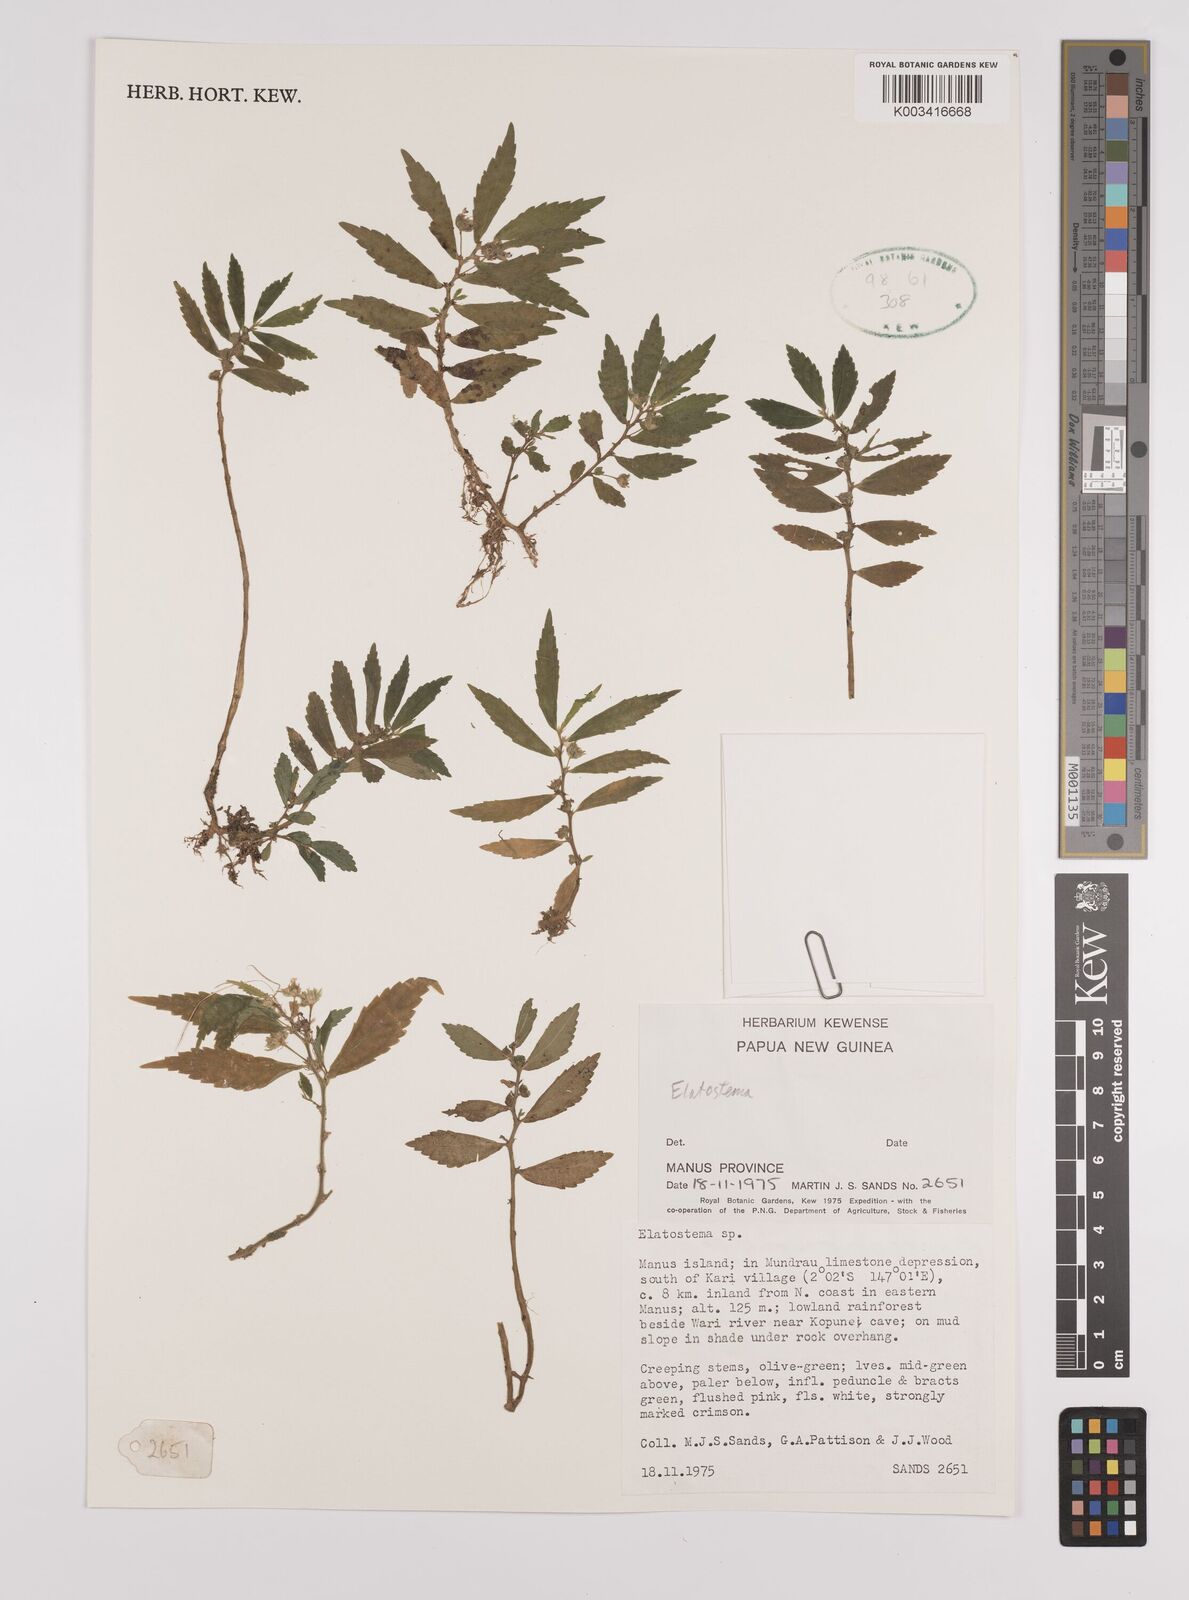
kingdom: Plantae
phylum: Tracheophyta
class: Magnoliopsida
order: Rosales
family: Urticaceae
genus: Elatostema
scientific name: Elatostema
